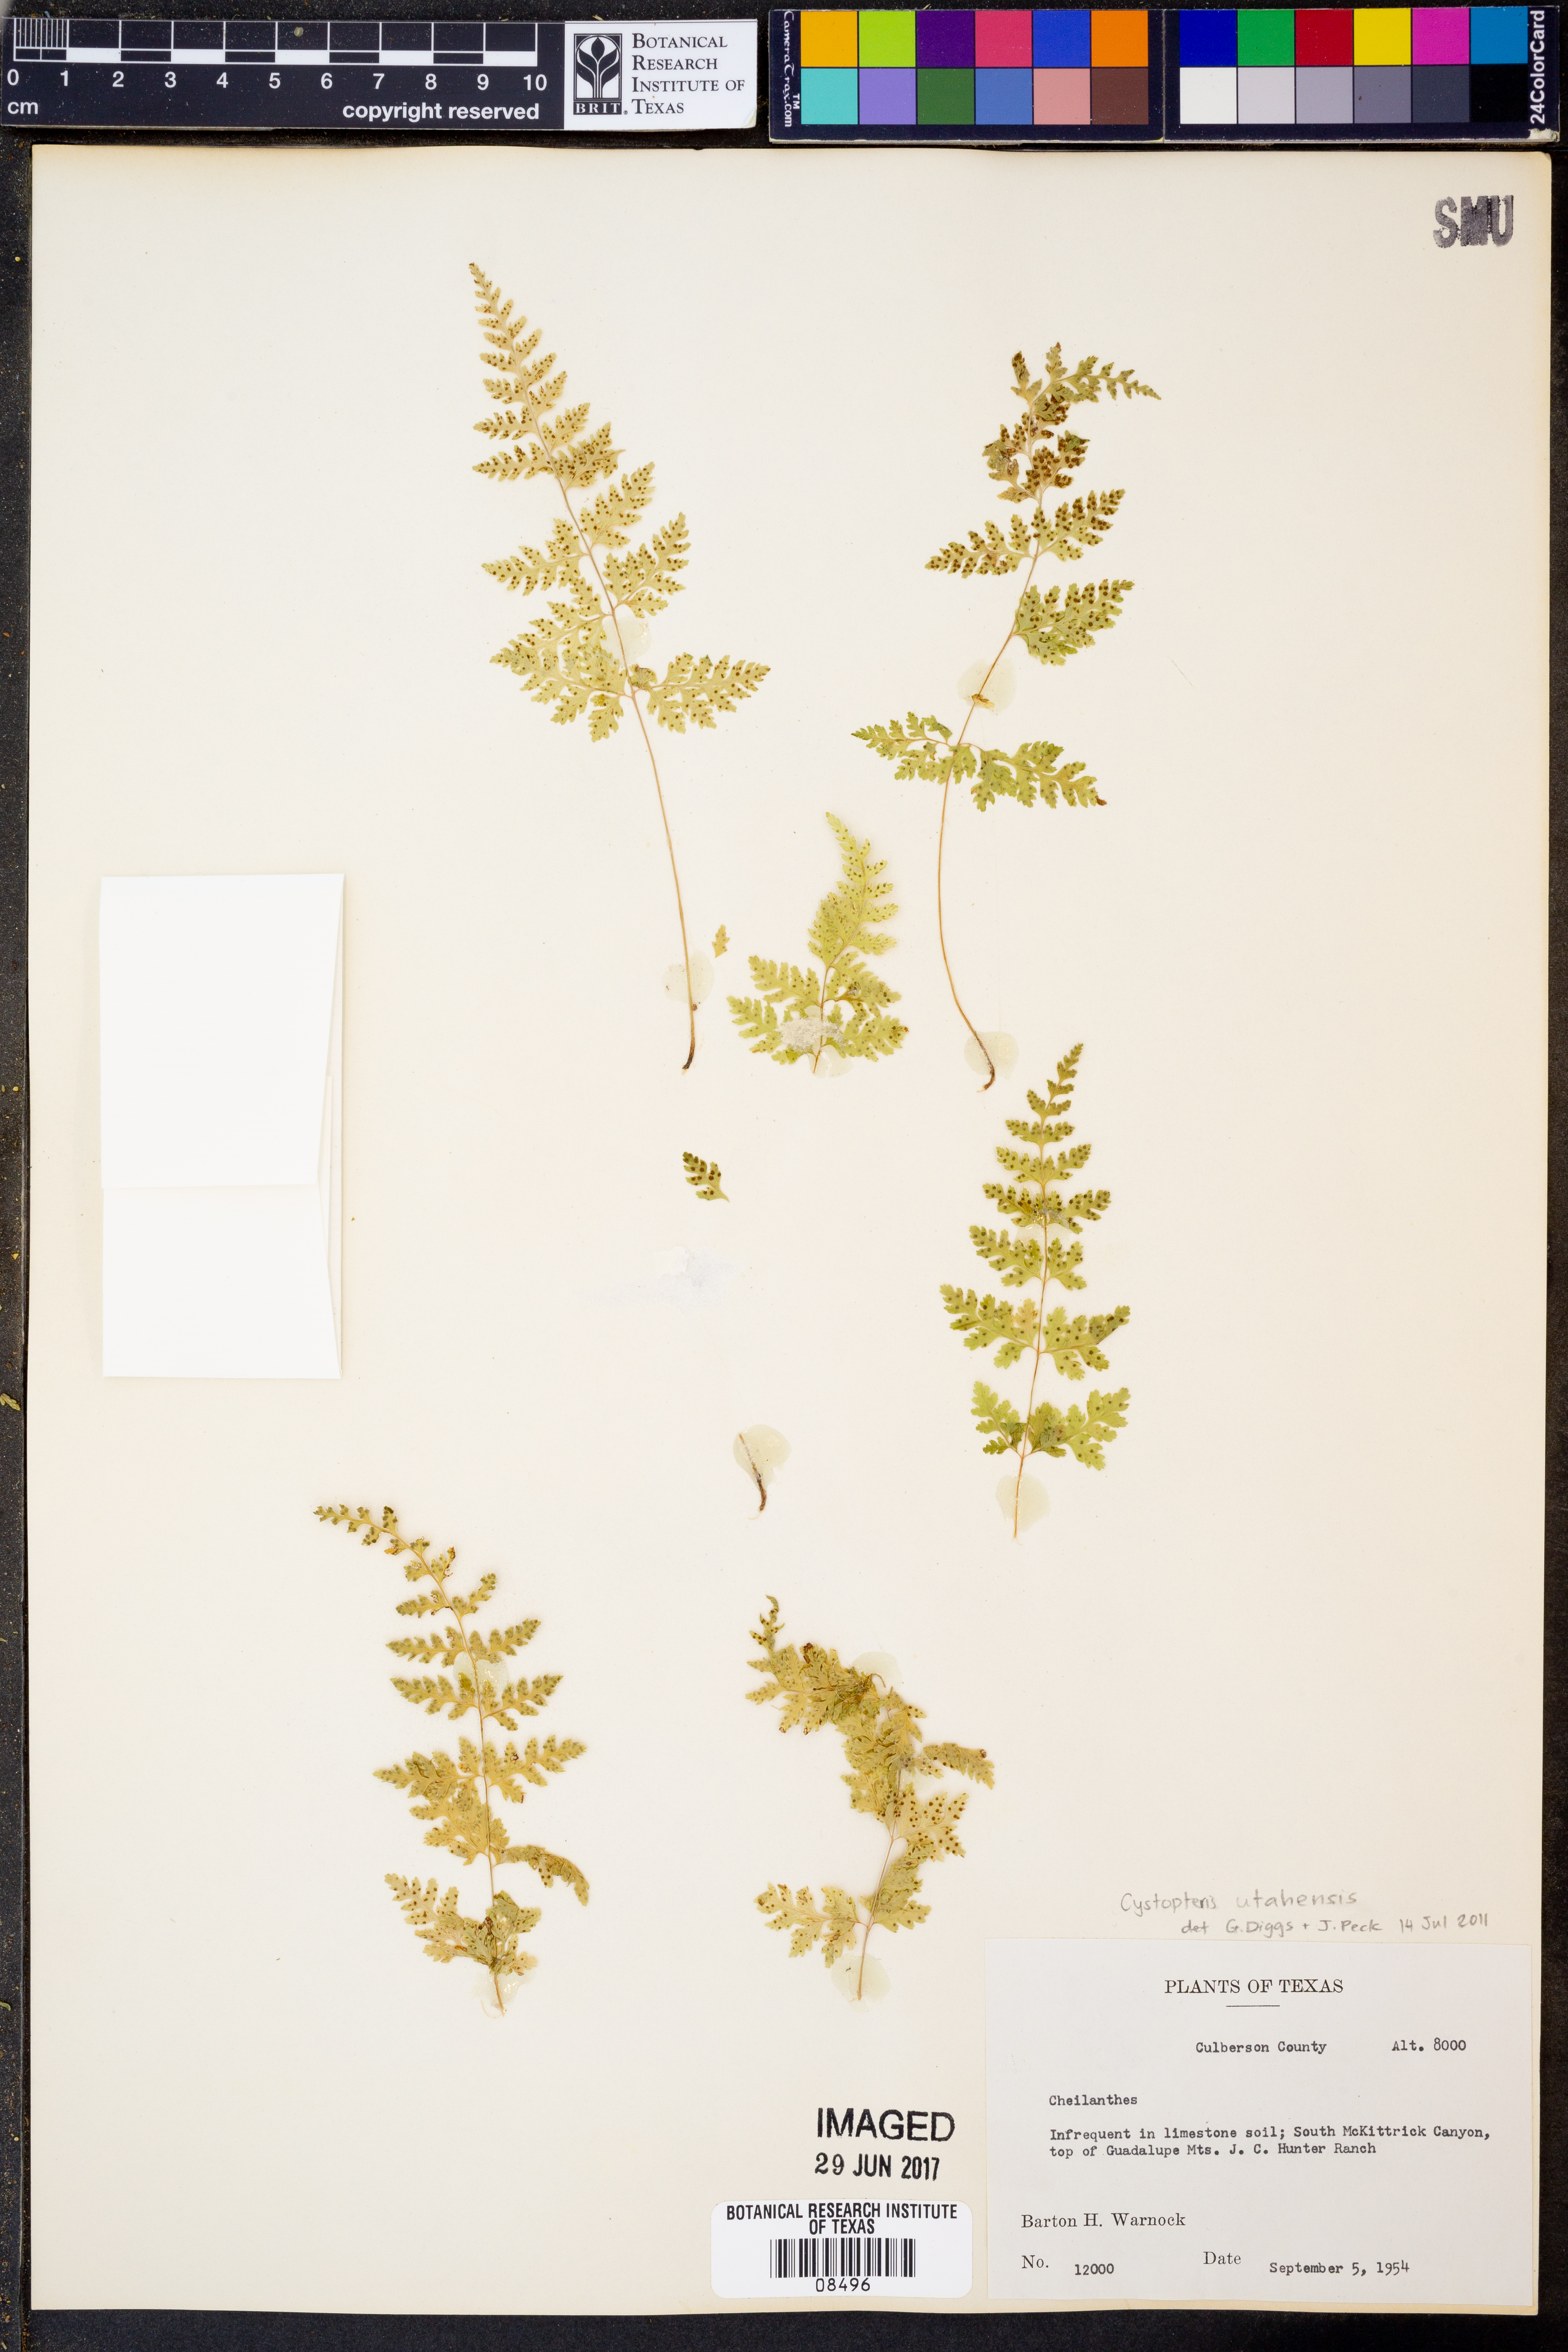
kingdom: Plantae
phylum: Tracheophyta
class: Polypodiopsida
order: Polypodiales
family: Pteridaceae
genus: Cheilanthes
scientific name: Cheilanthes
